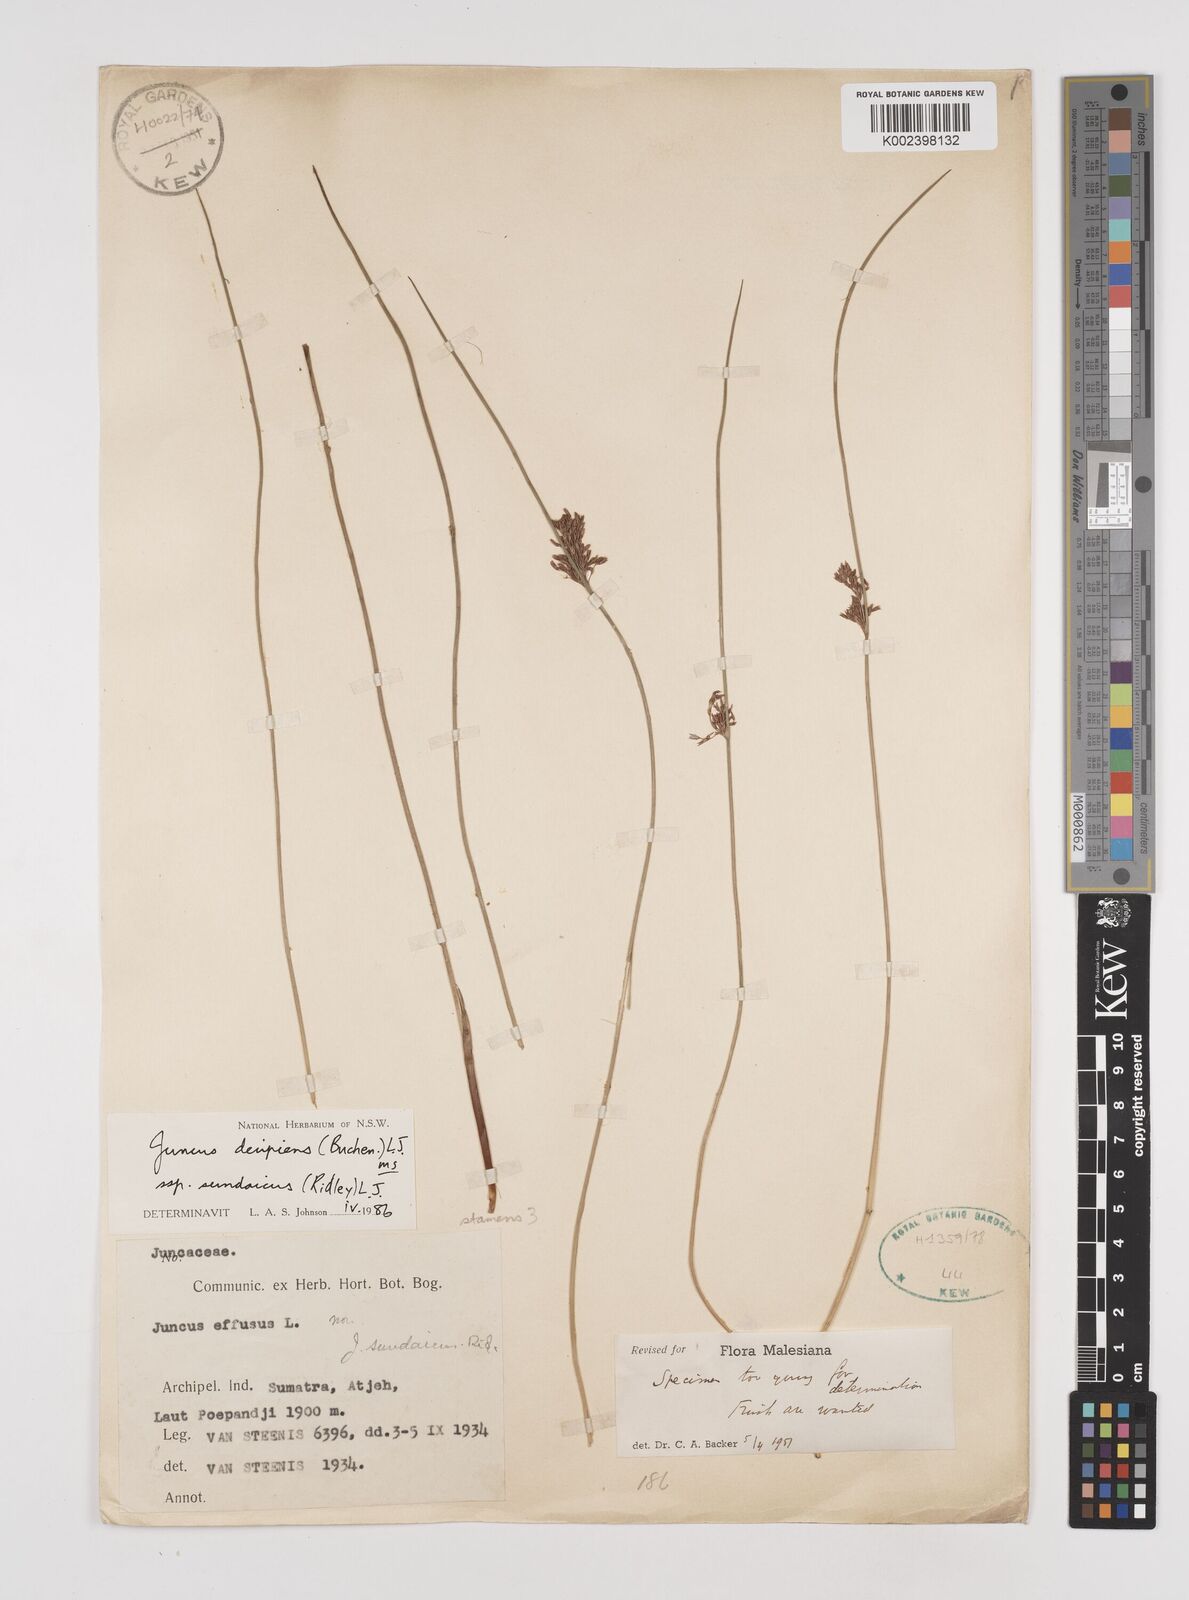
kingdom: Plantae
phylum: Tracheophyta
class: Liliopsida
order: Poales
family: Juncaceae
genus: Juncus
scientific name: Juncus decipiens
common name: Lamp rush
